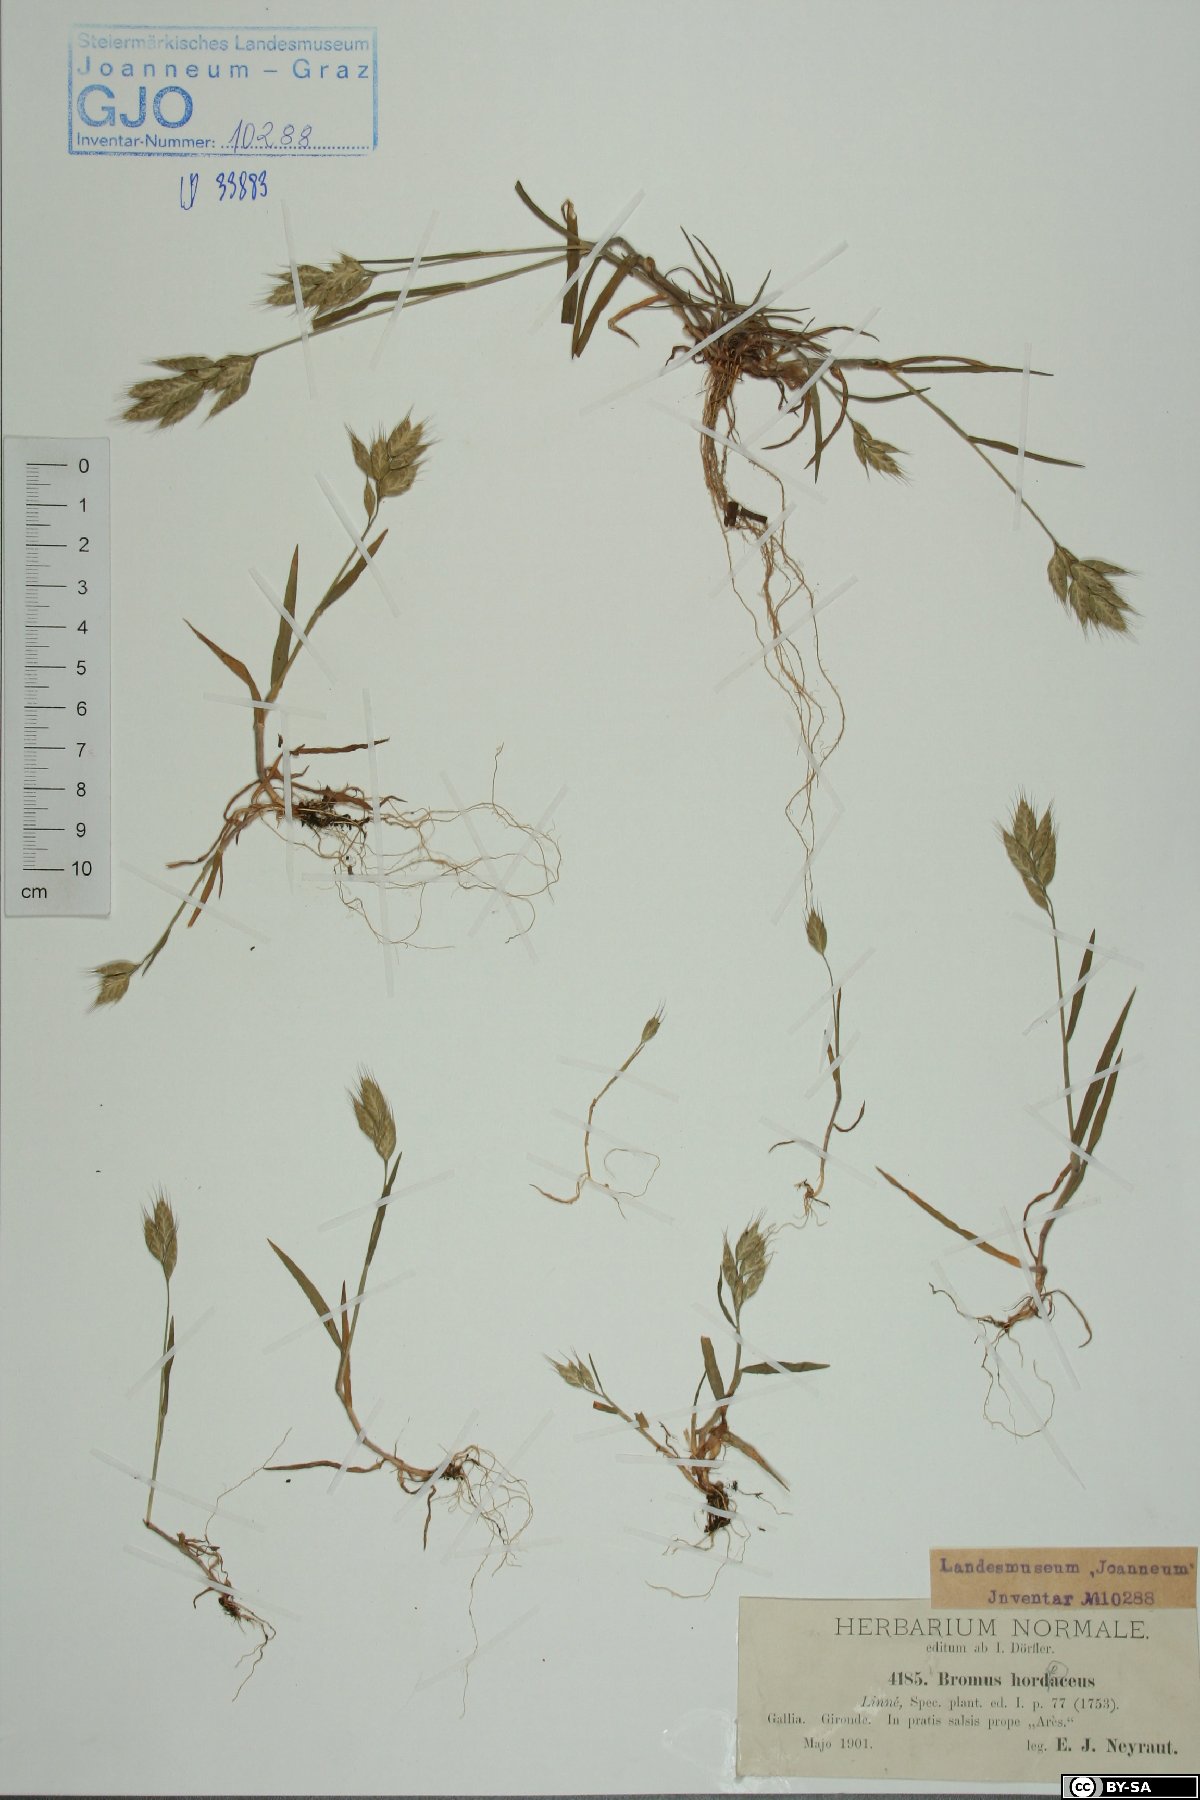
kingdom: Plantae
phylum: Tracheophyta
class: Liliopsida
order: Poales
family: Poaceae
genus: Bromus
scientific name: Bromus inermis
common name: Smooth brome
